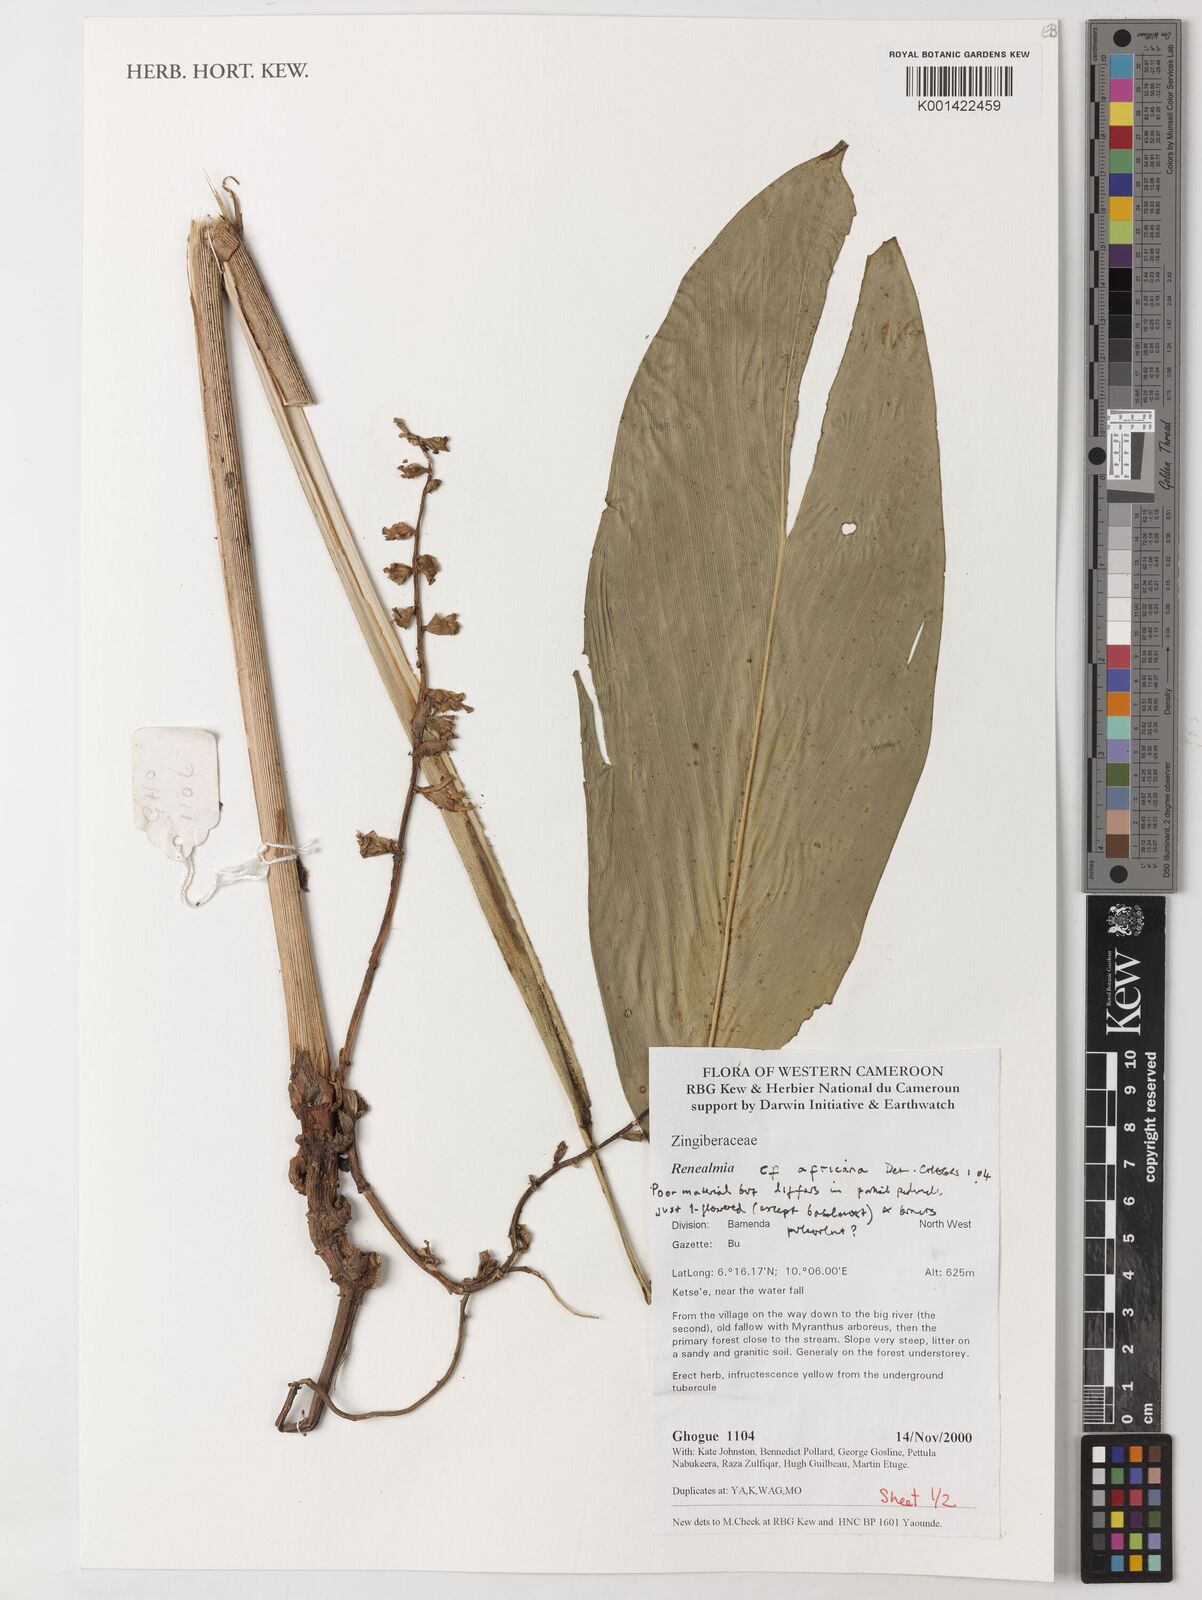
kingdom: Plantae
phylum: Tracheophyta
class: Liliopsida
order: Zingiberales
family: Zingiberaceae
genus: Renealmia
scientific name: Renealmia africana
